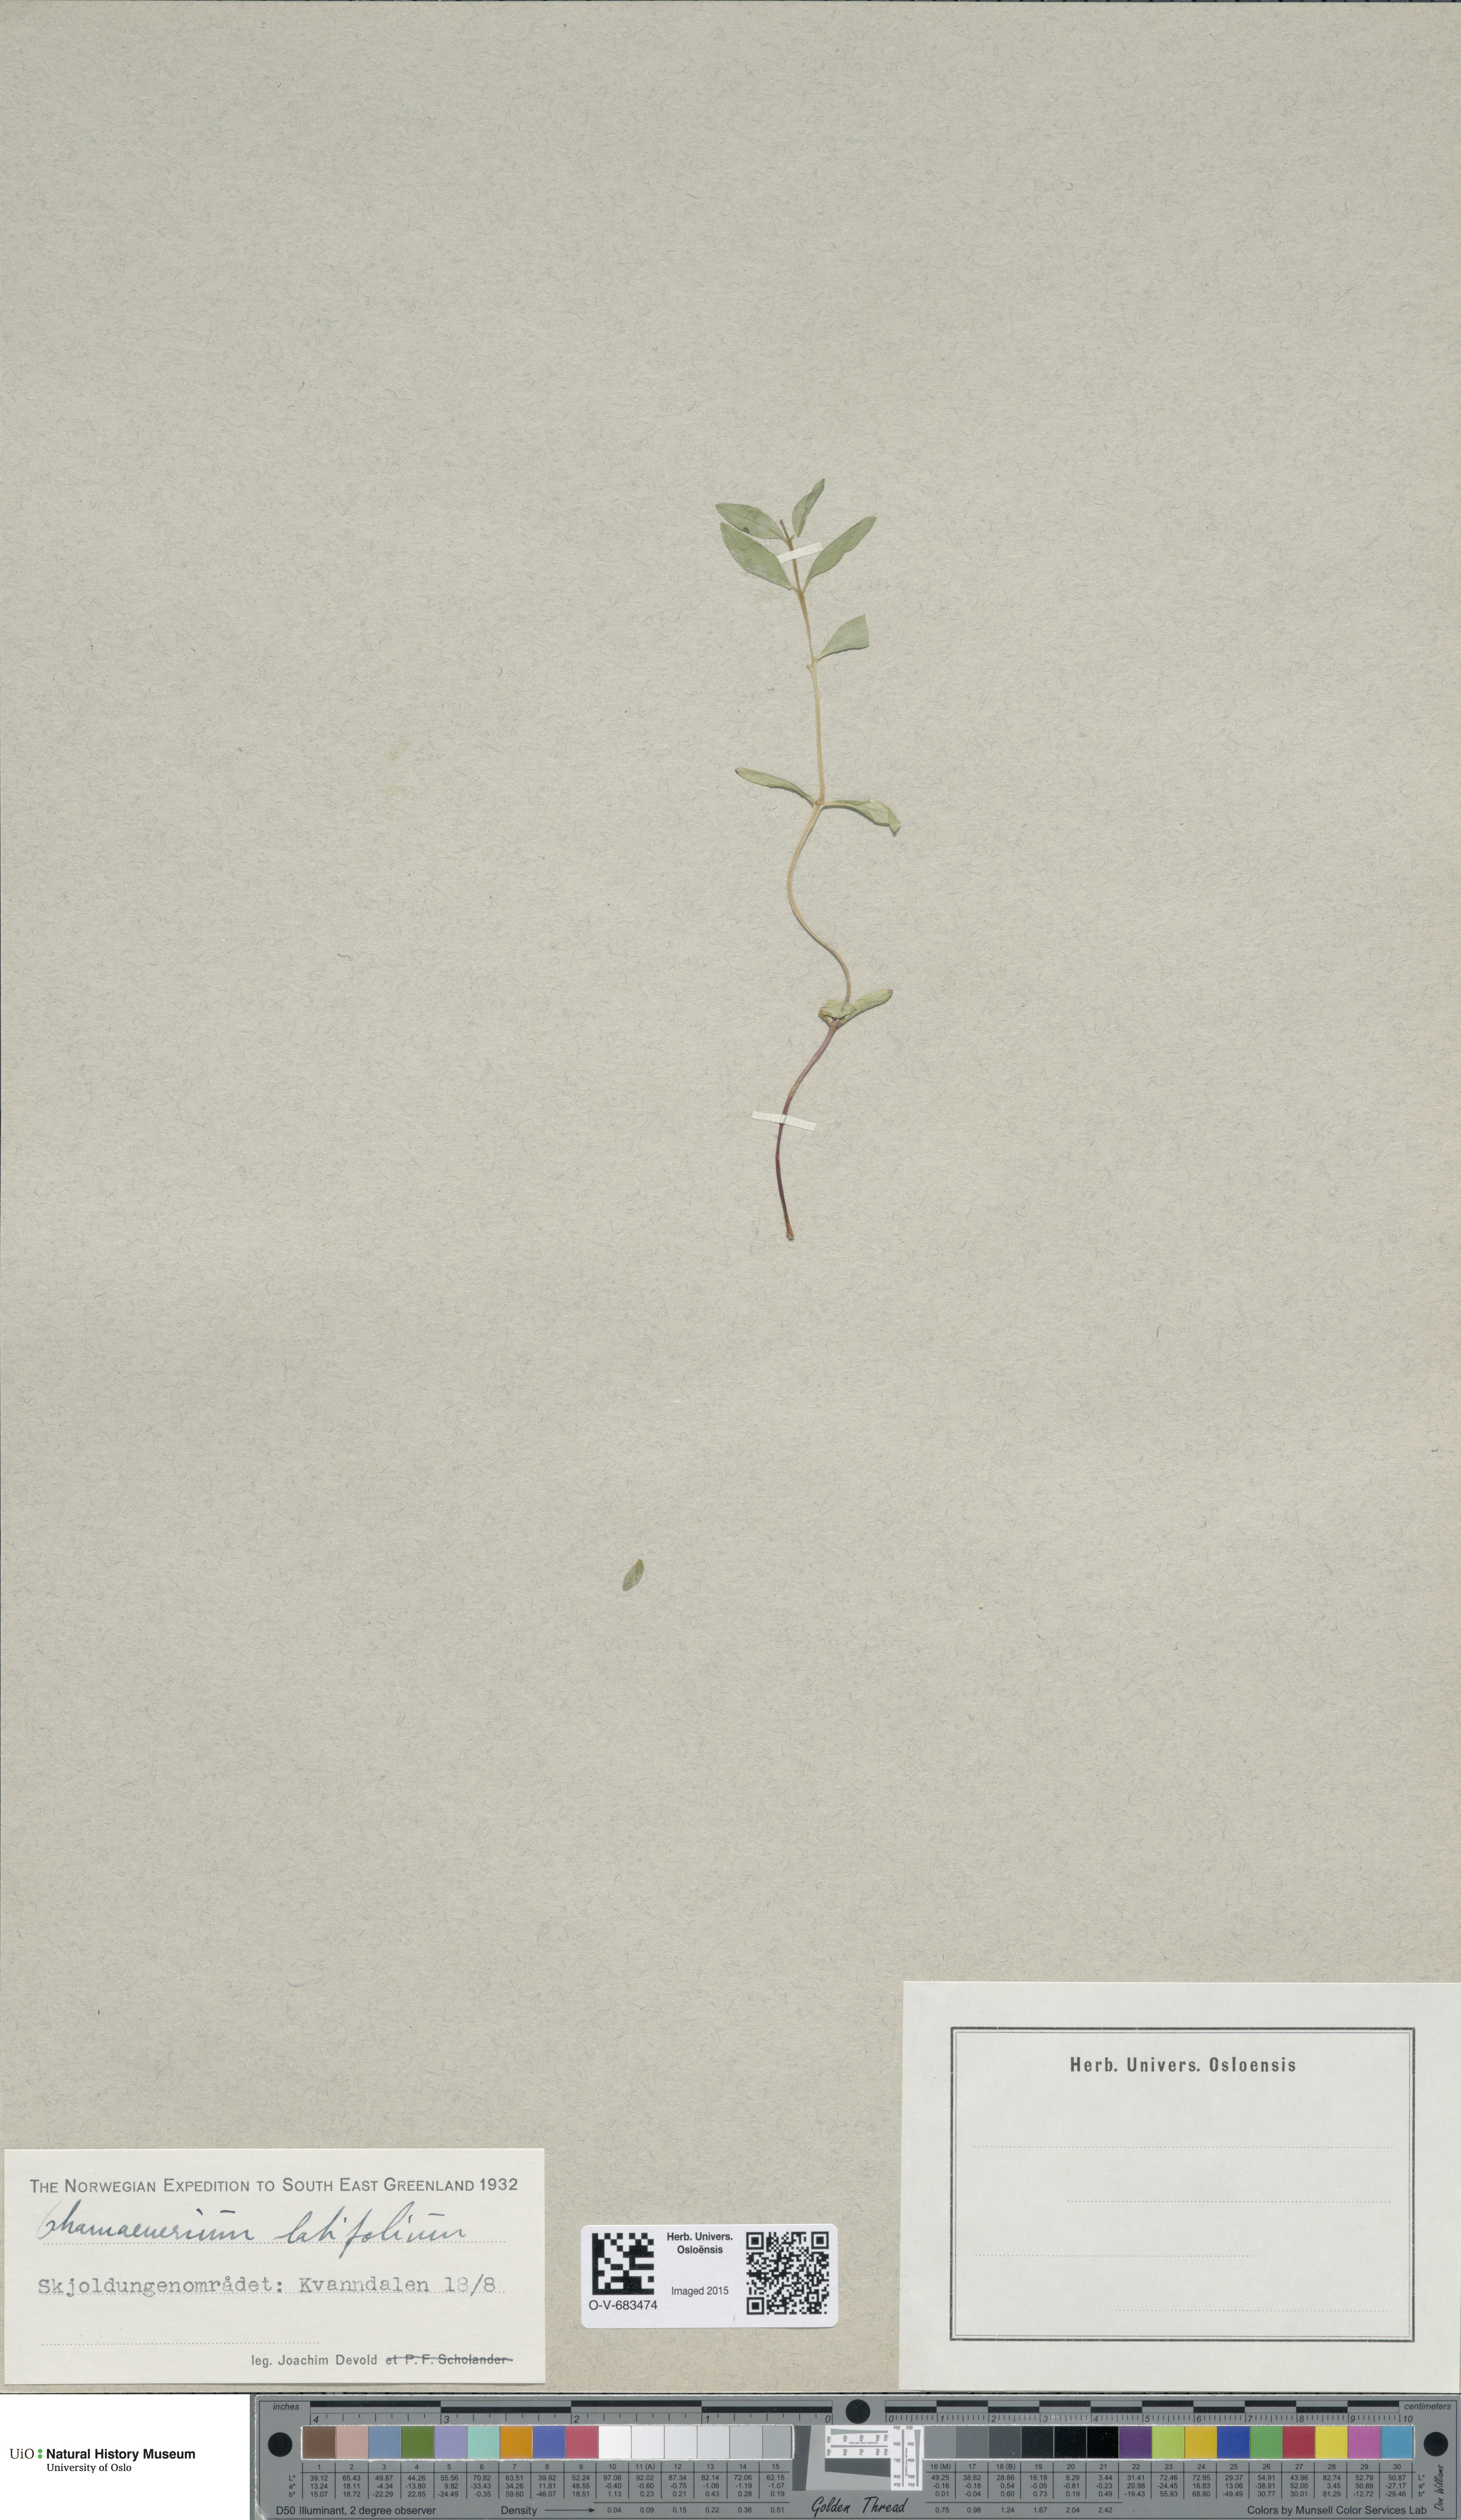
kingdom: Plantae
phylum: Tracheophyta
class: Magnoliopsida
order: Myrtales
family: Onagraceae
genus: Chamaenerion
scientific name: Chamaenerion latifolium
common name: Dwarf fireweed
